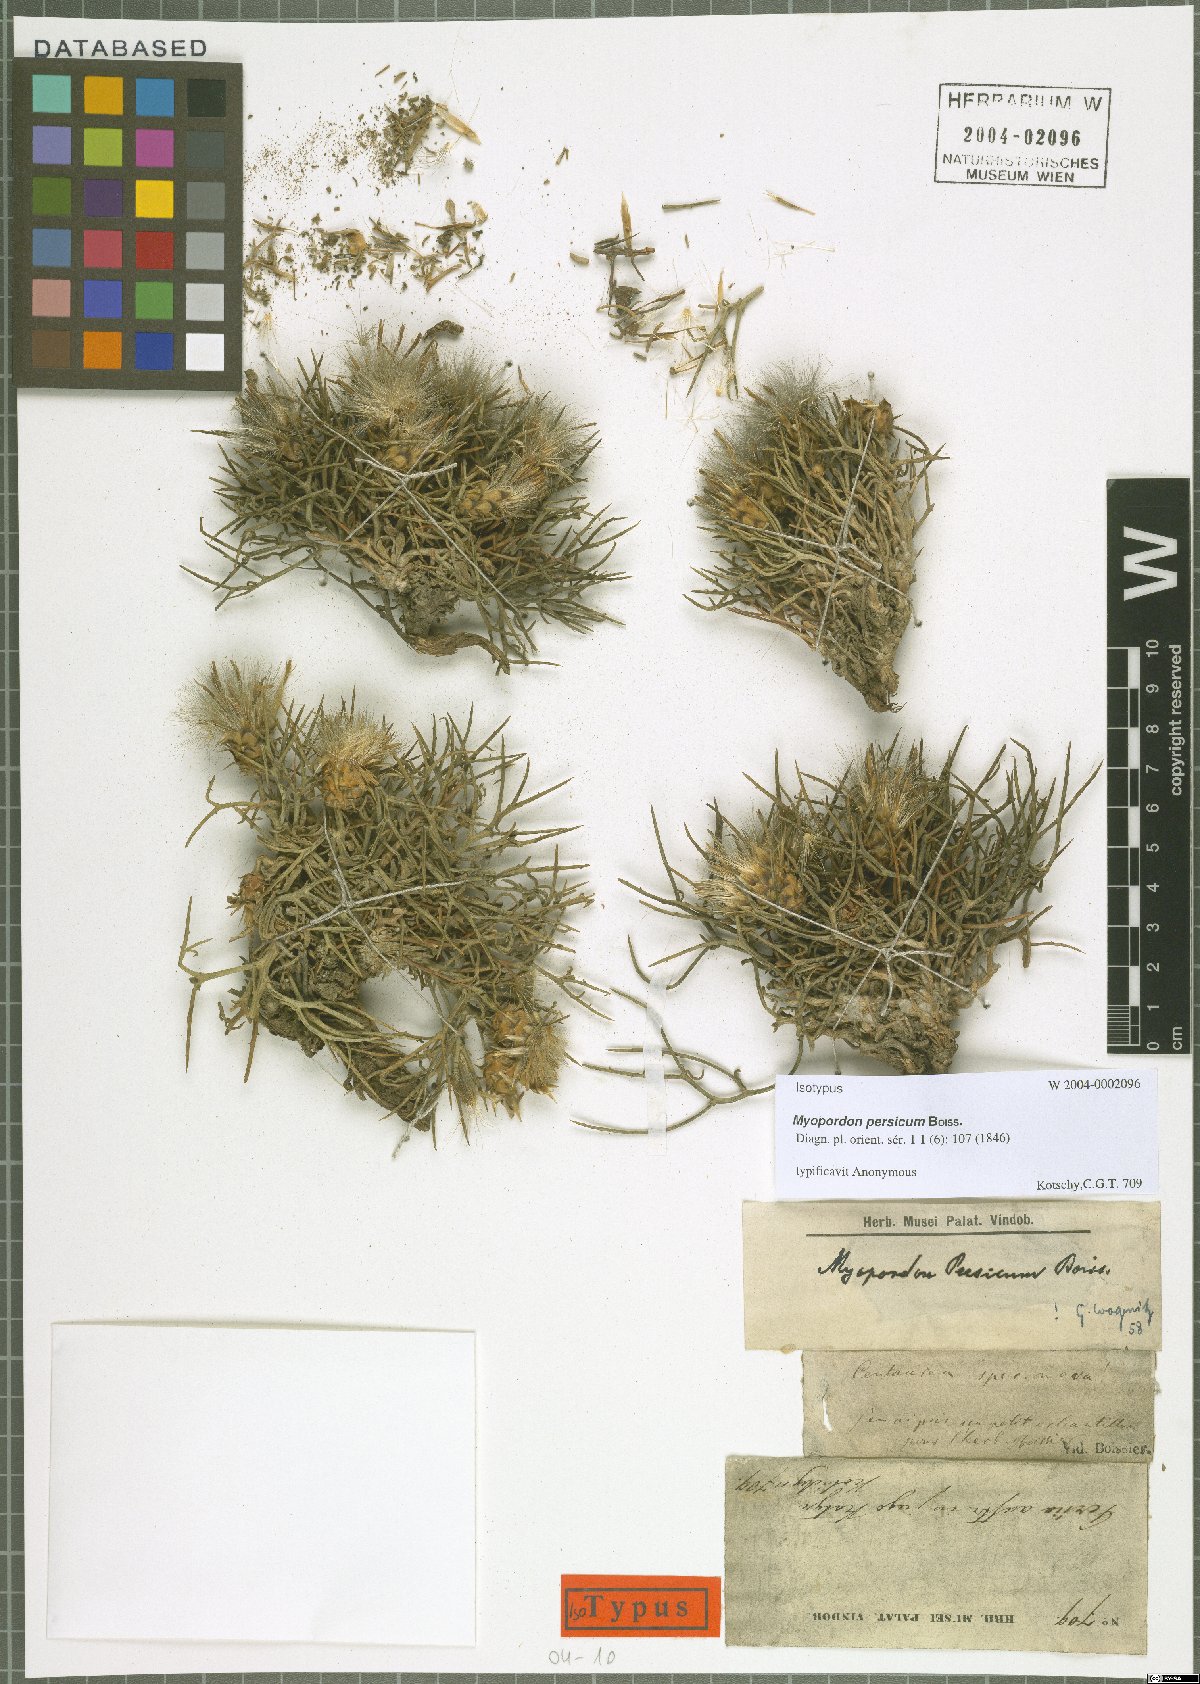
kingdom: Plantae
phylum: Tracheophyta
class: Magnoliopsida
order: Asterales
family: Asteraceae
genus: Myopordon
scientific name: Myopordon persicum
